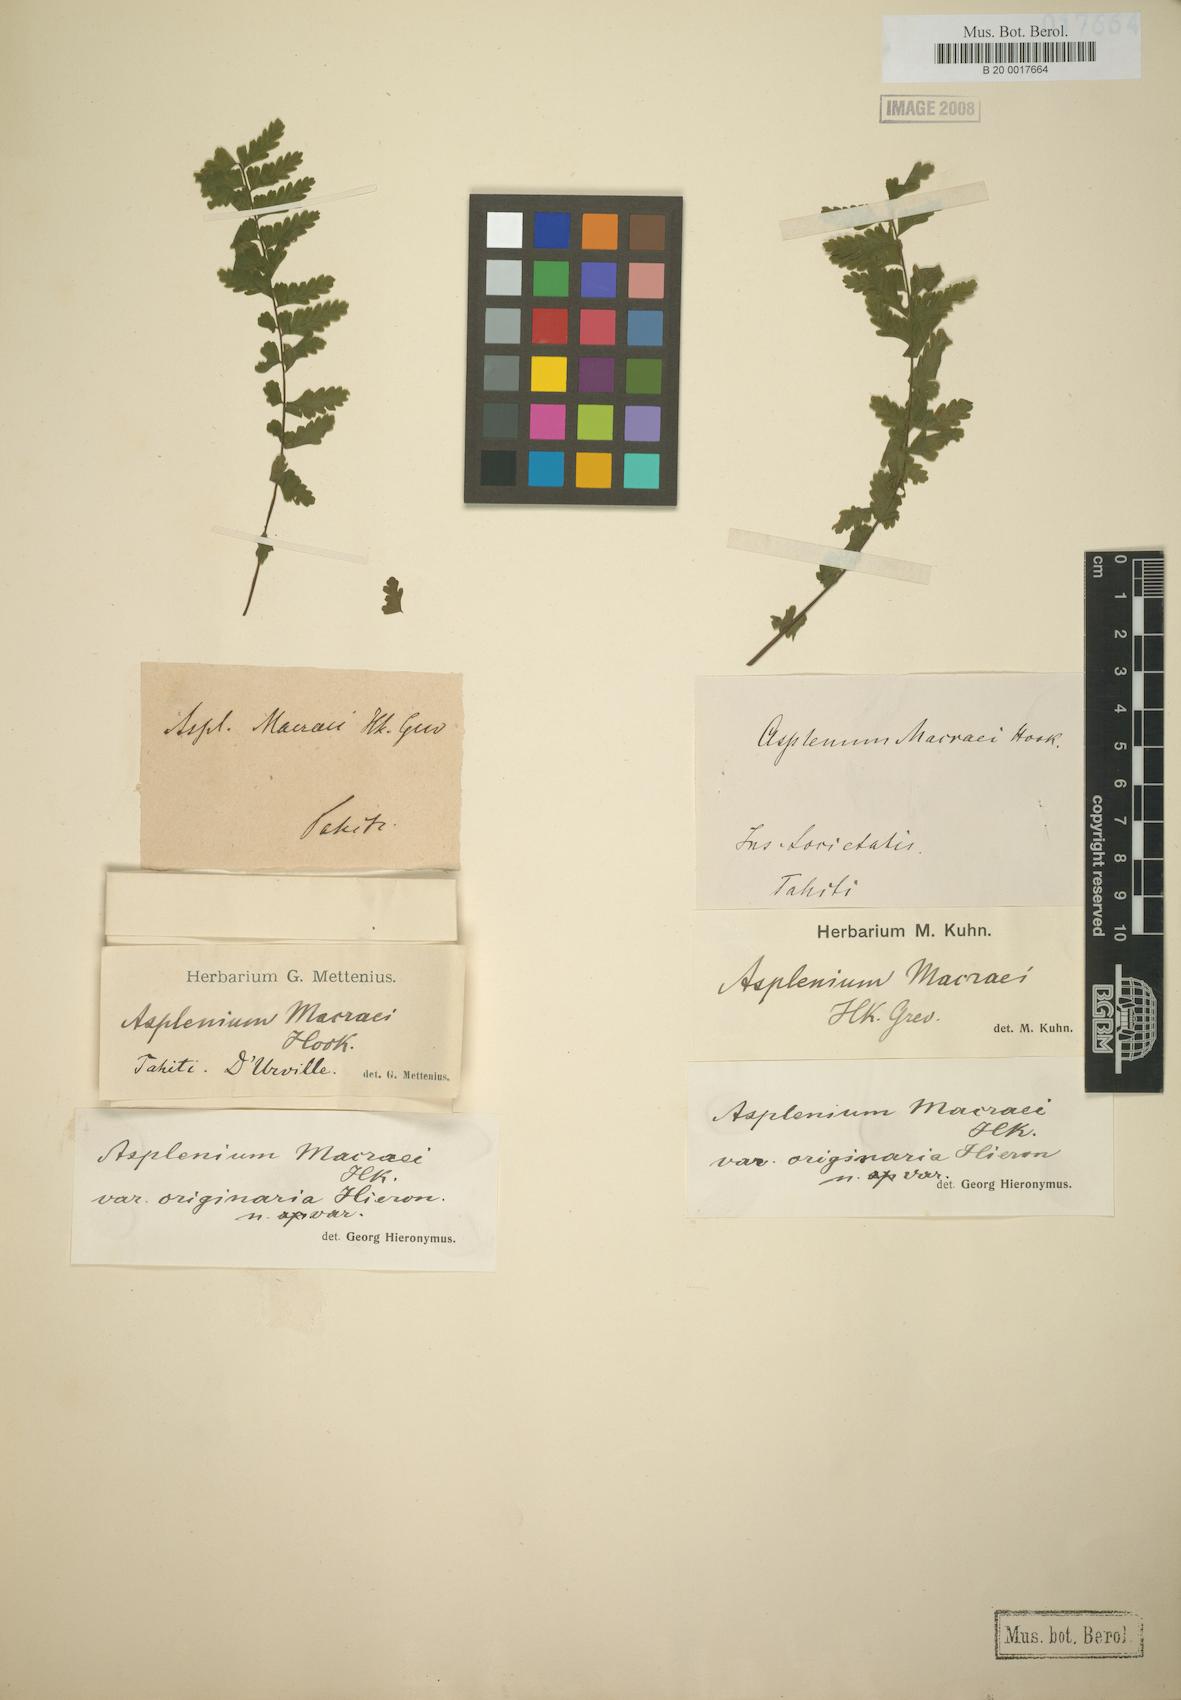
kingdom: Plantae
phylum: Tracheophyta
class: Polypodiopsida
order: Polypodiales
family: Aspleniaceae
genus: Asplenium
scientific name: Asplenium macraei
